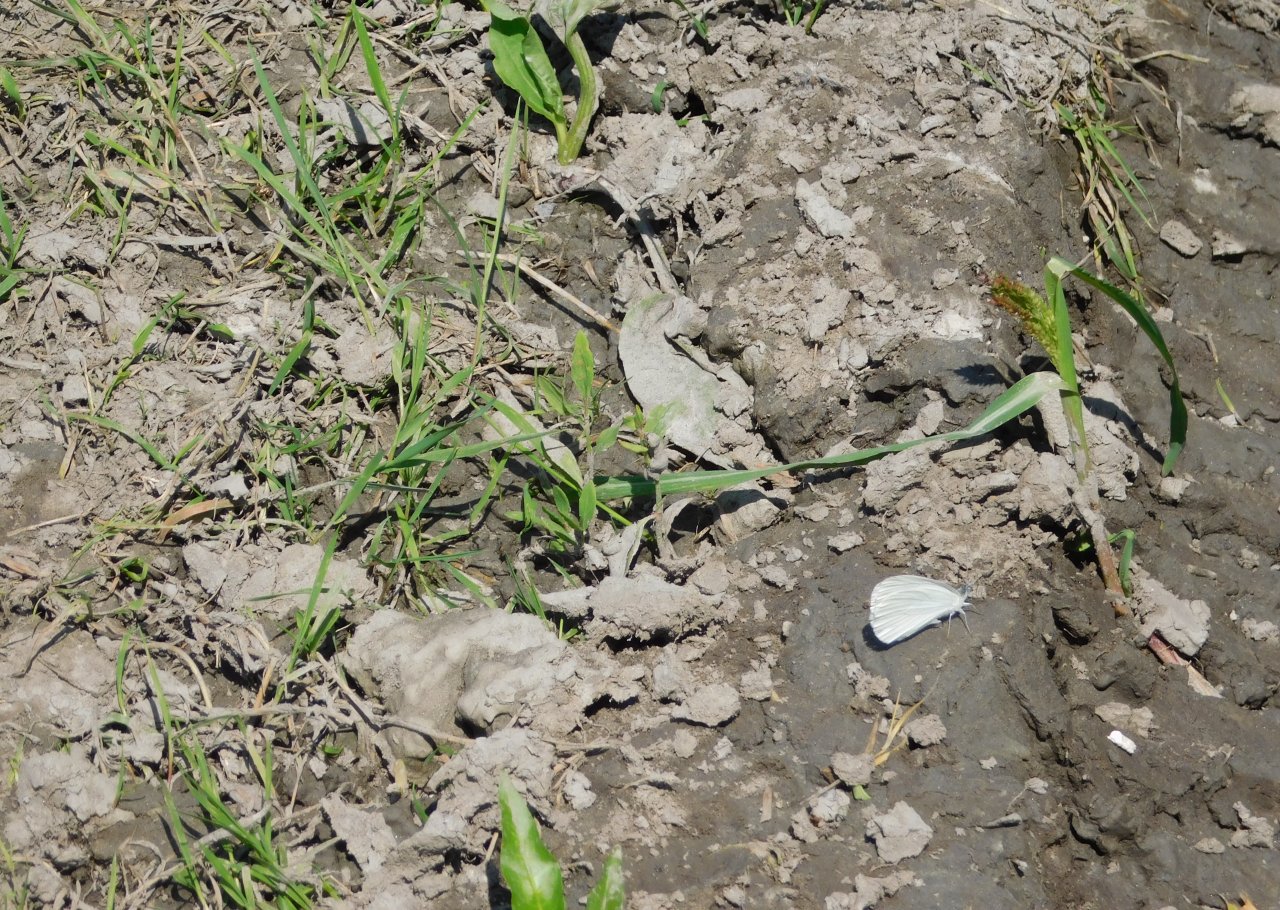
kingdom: Animalia
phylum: Arthropoda
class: Insecta
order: Lepidoptera
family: Pieridae
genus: Pieris
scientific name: Pieris
